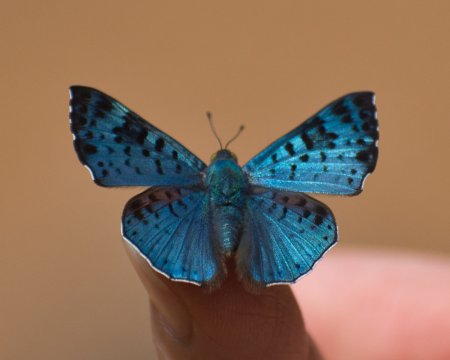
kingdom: Animalia
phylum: Arthropoda
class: Insecta
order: Lepidoptera
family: Riodinidae
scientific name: Riodinidae
